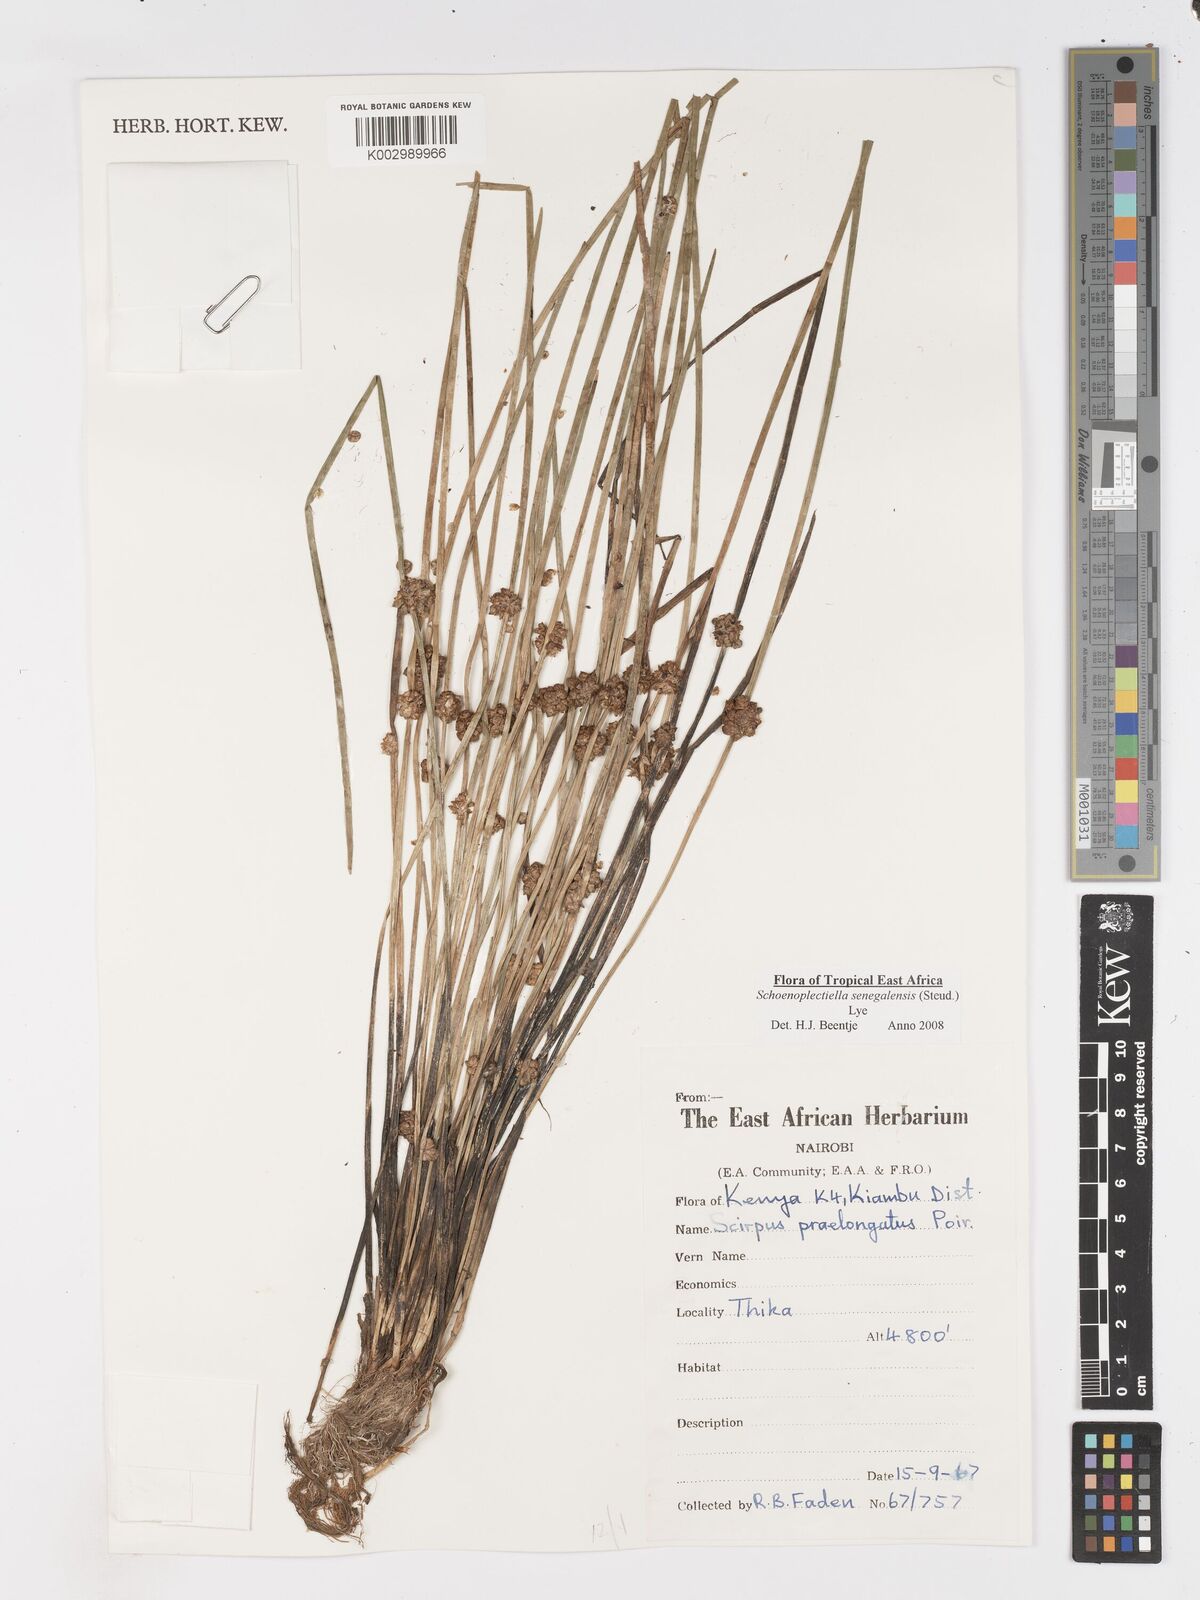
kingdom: Plantae
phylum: Tracheophyta
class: Liliopsida
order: Poales
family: Cyperaceae
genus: Schoenoplectiella
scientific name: Schoenoplectiella senegalensis
